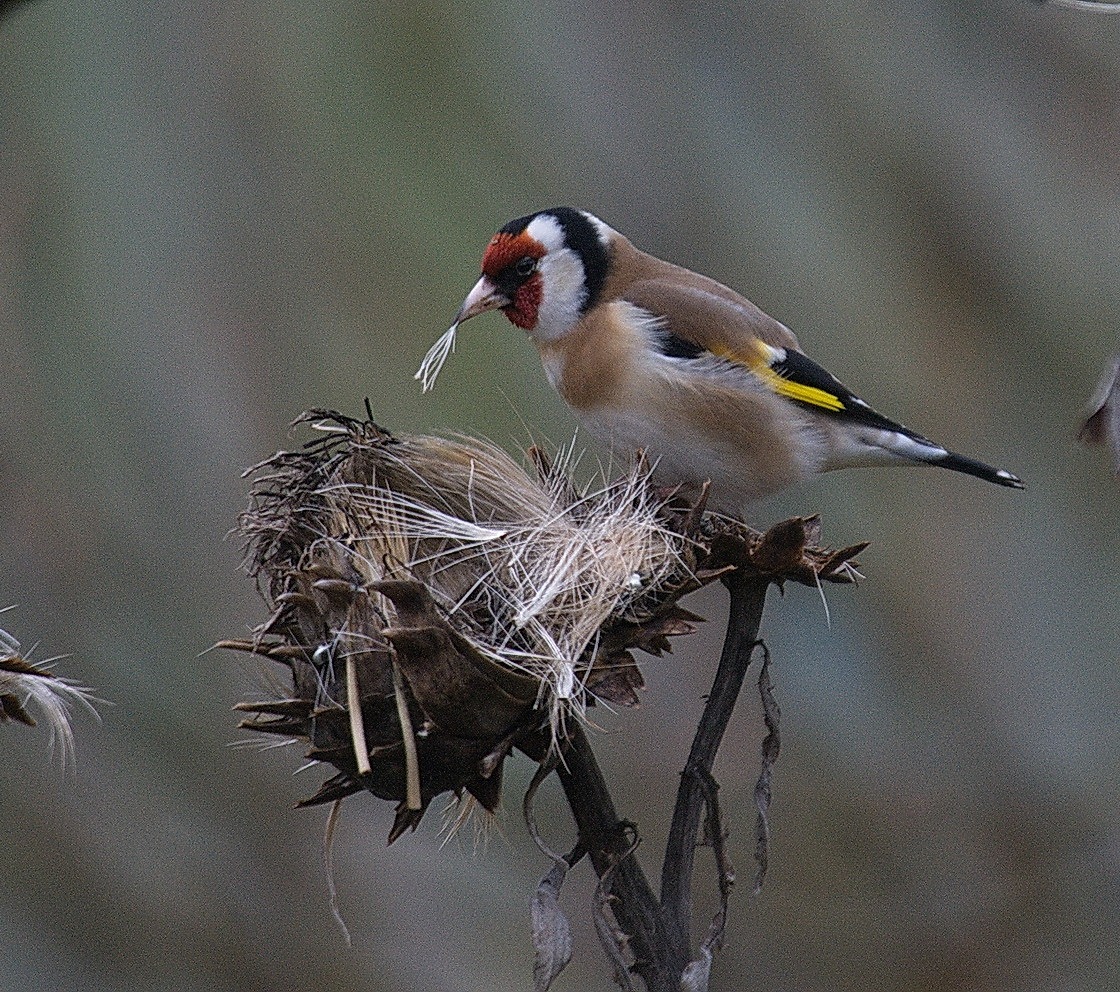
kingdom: Animalia
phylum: Chordata
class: Aves
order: Passeriformes
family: Fringillidae
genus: Carduelis
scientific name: Carduelis carduelis
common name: Stillits
